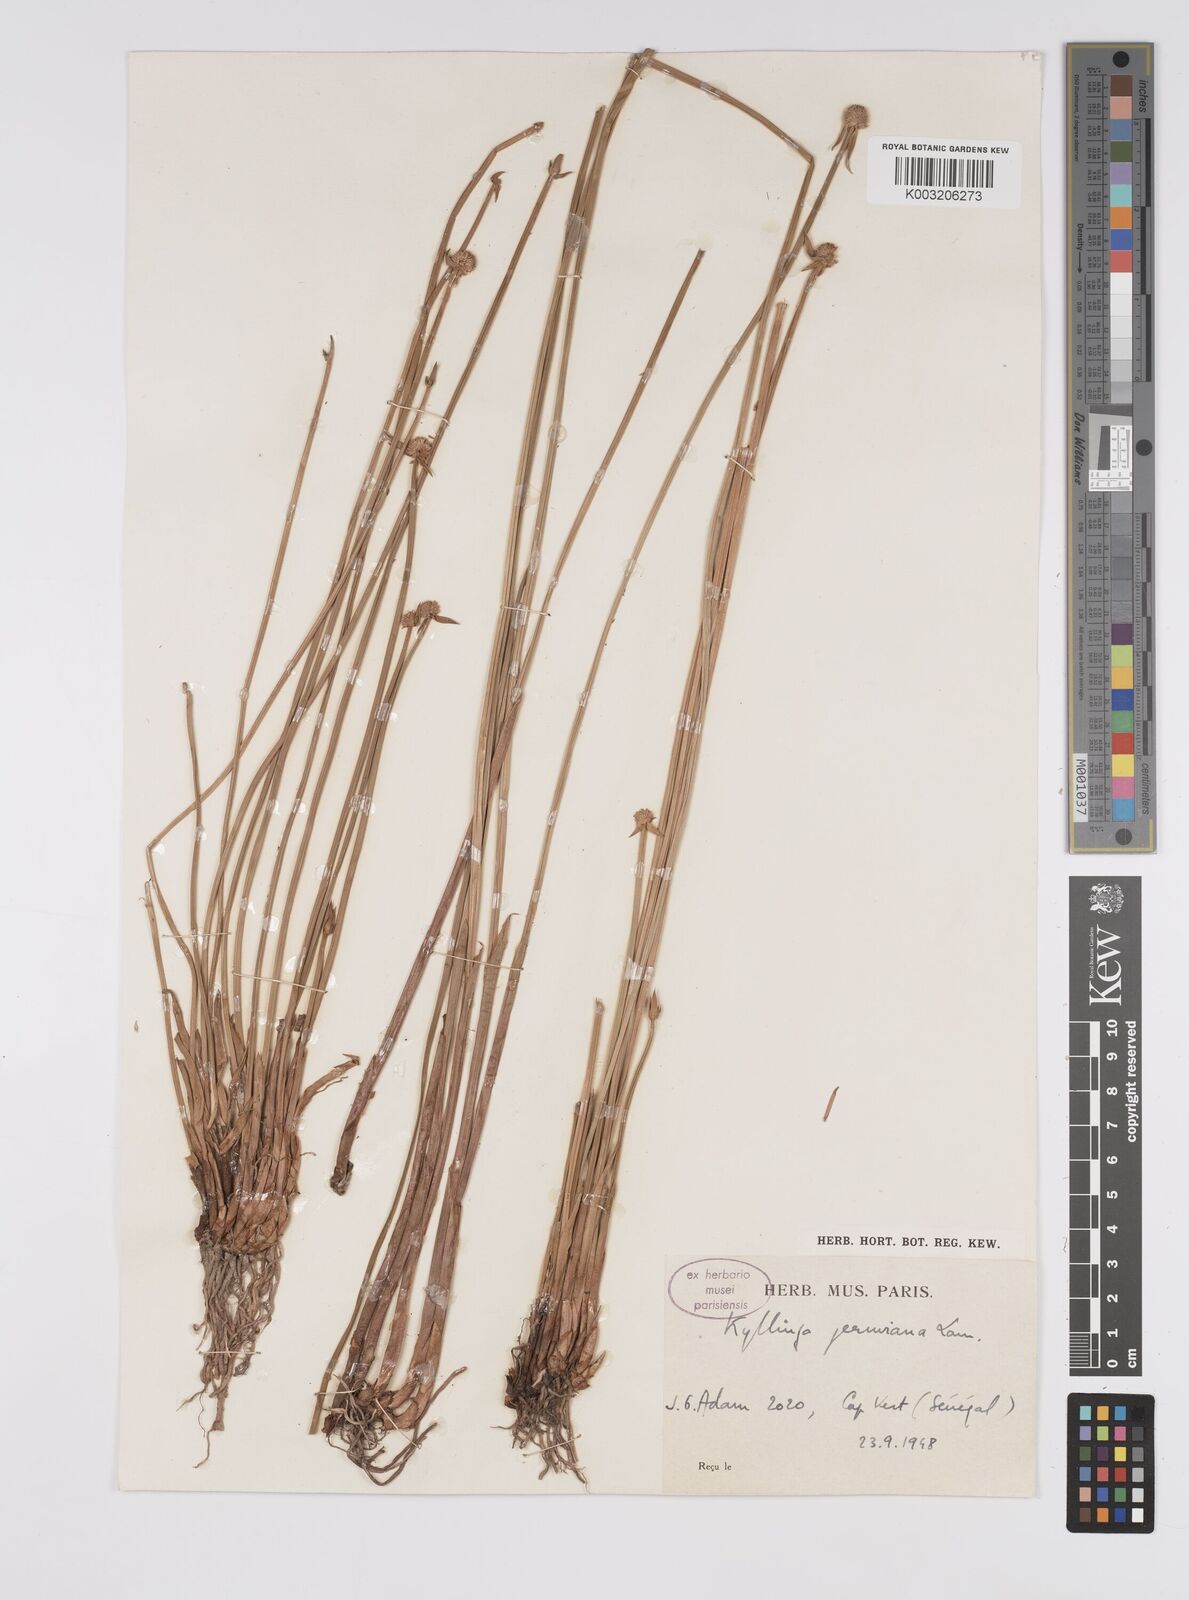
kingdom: Plantae
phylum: Tracheophyta
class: Liliopsida
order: Poales
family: Cyperaceae
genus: Cyperus
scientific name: Cyperus obtusatus
